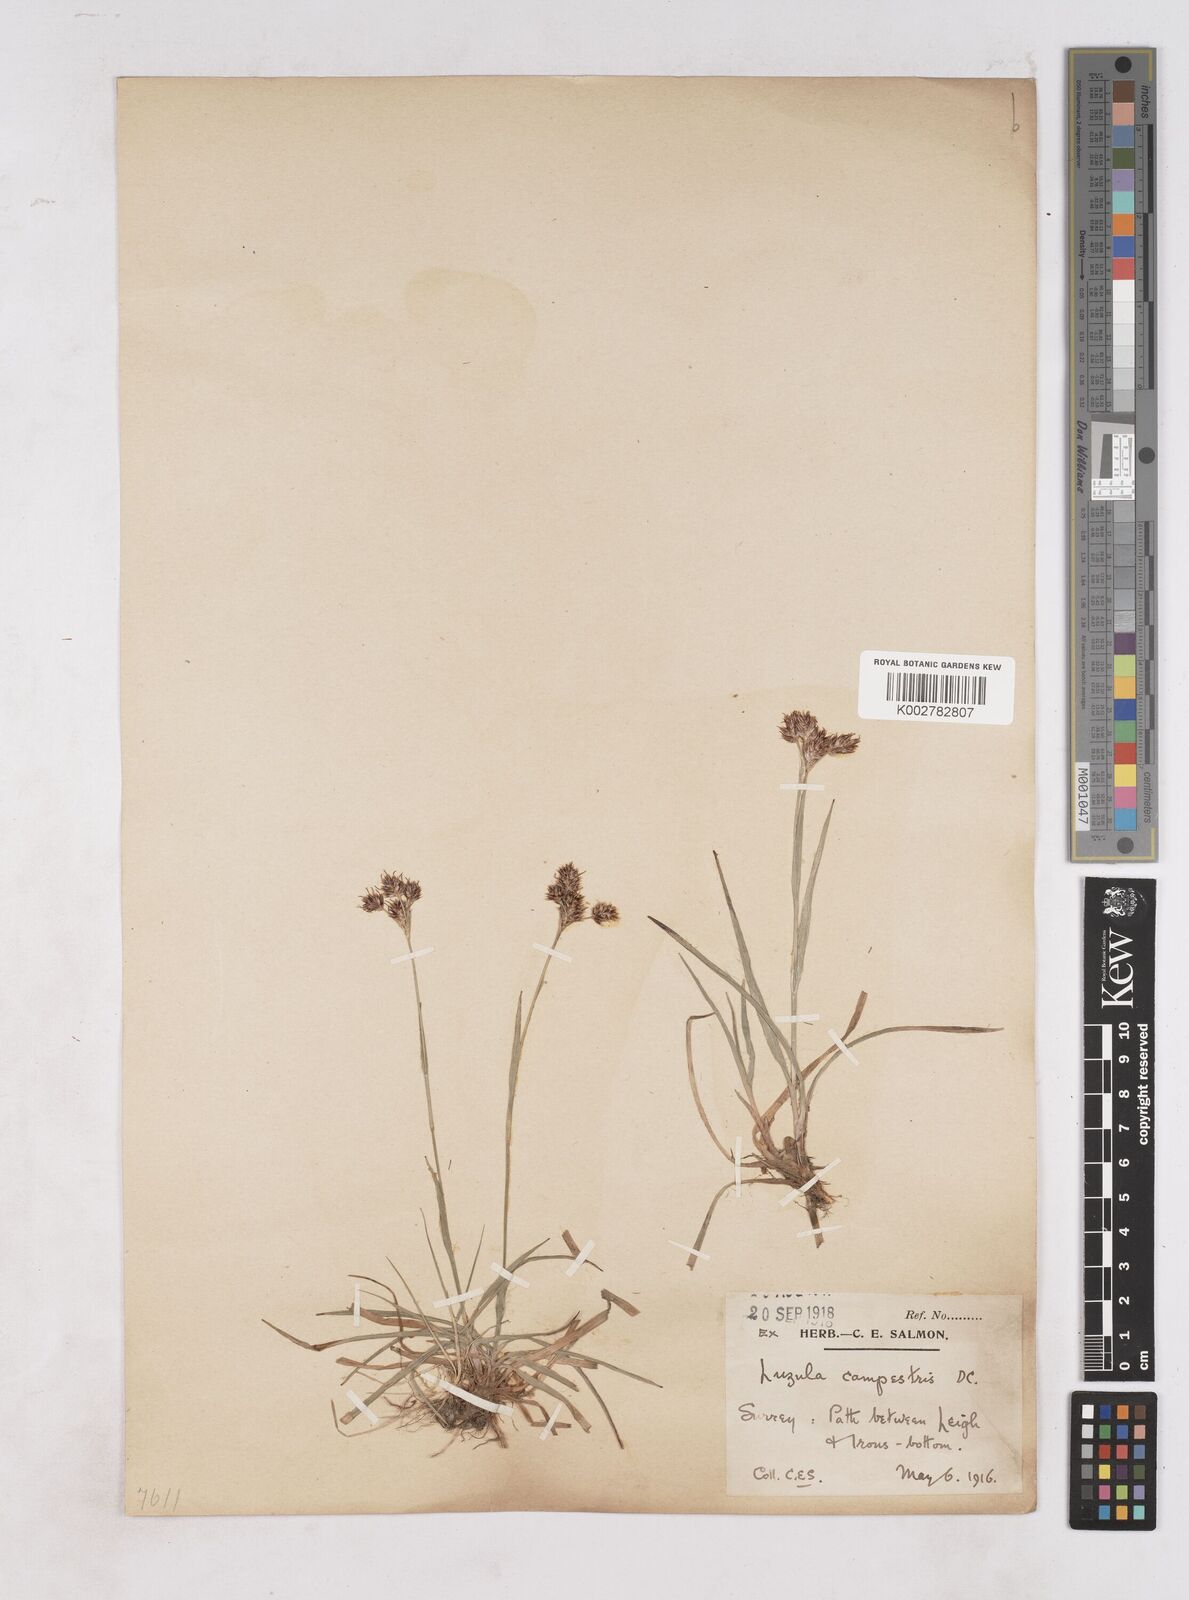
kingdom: Plantae
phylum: Tracheophyta
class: Liliopsida
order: Poales
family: Juncaceae
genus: Luzula
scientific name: Luzula campestris
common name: Field wood-rush
